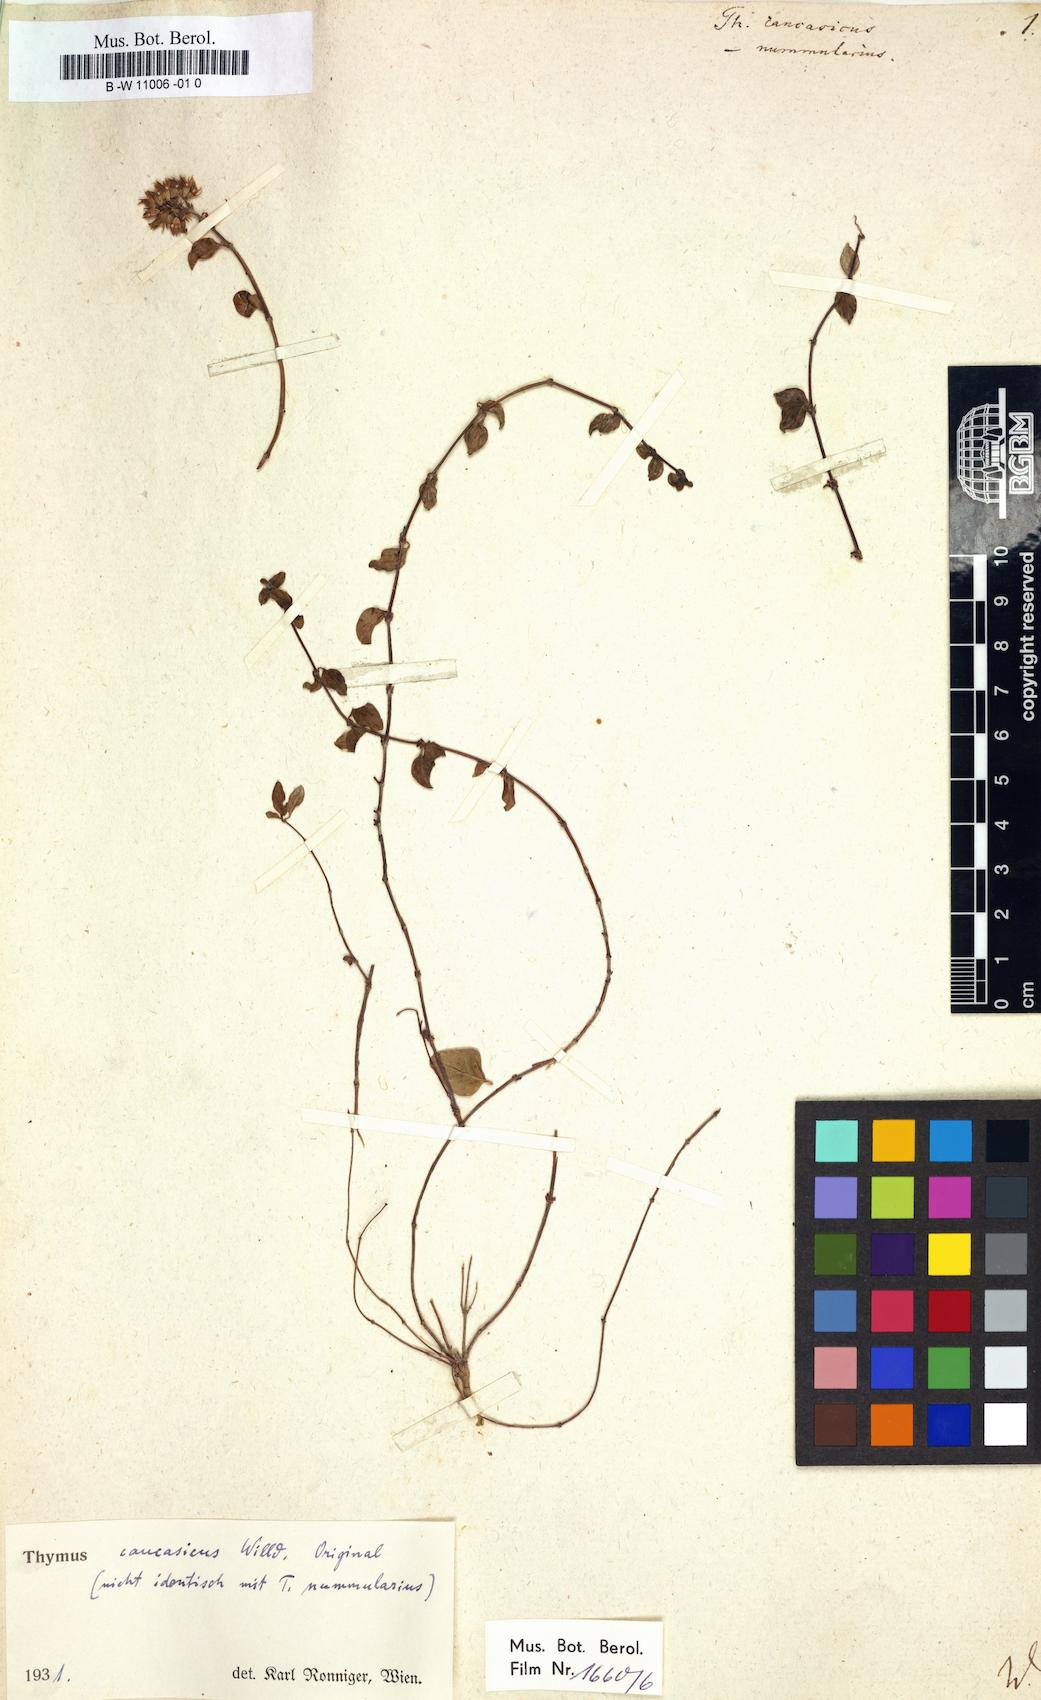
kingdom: Plantae
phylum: Tracheophyta
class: Magnoliopsida
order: Lamiales
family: Lamiaceae
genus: Thymus
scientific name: Thymus
